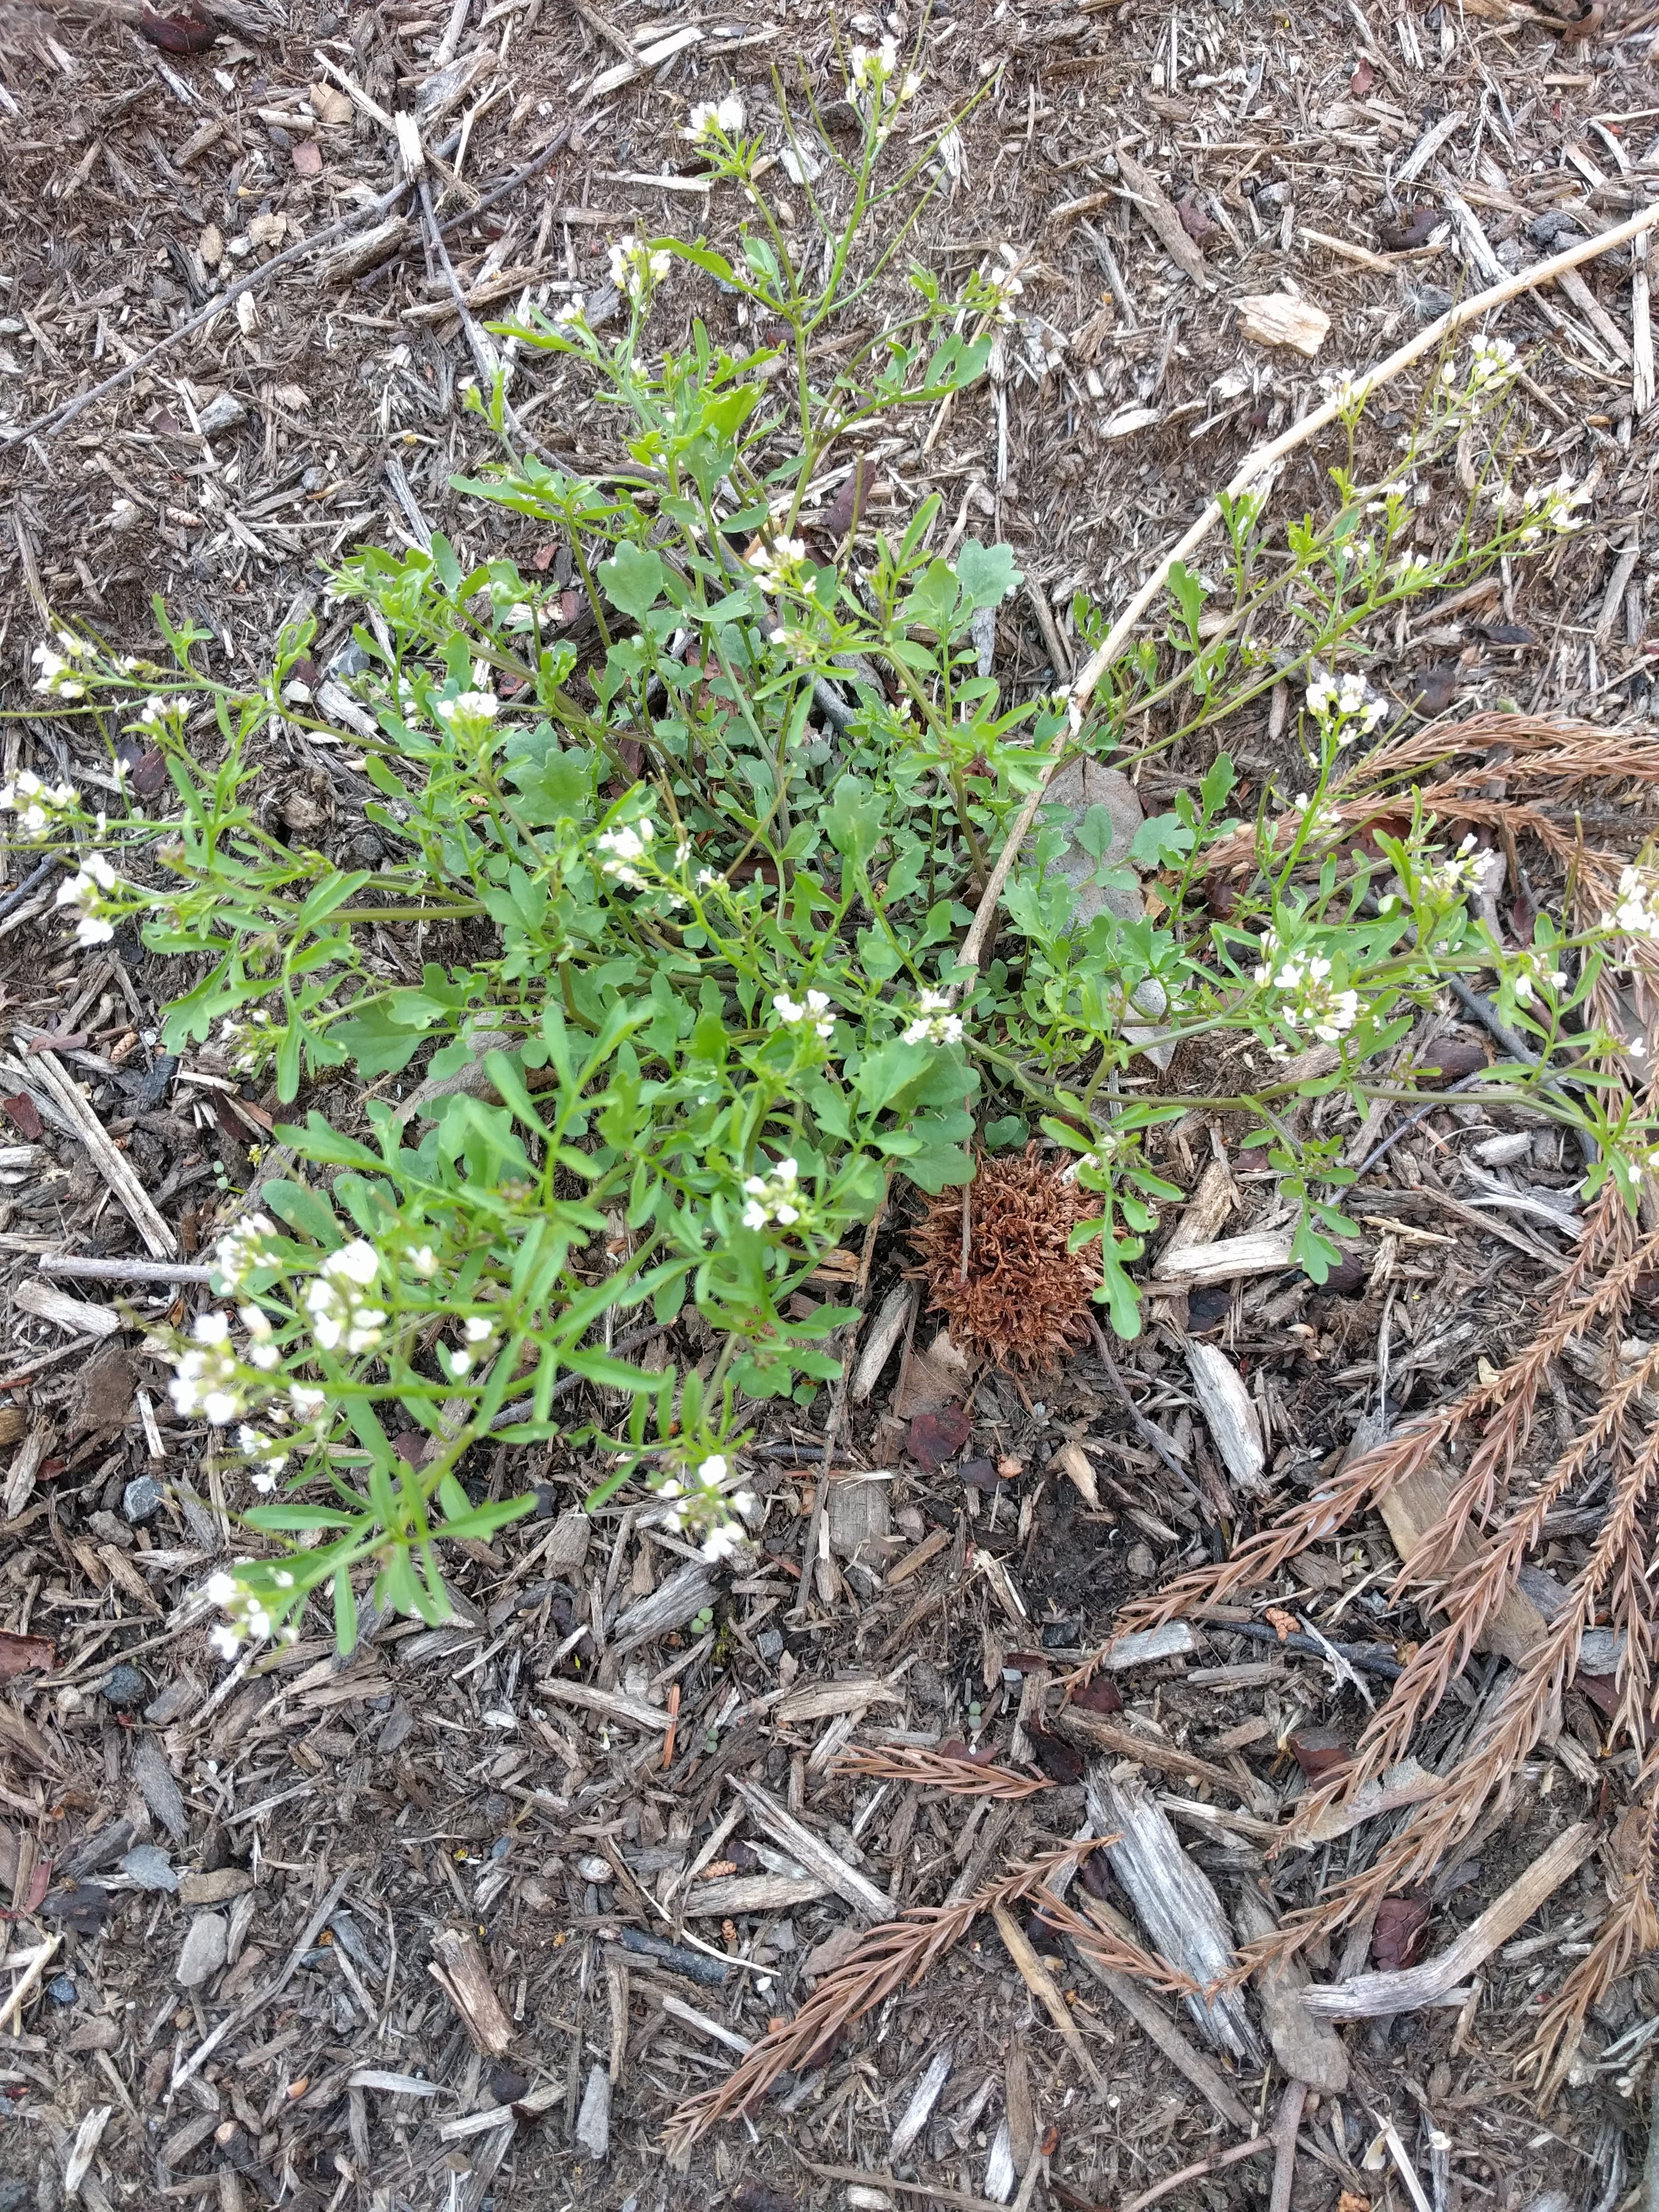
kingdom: Plantae
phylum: Tracheophyta
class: Magnoliopsida
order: Brassicales
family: Brassicaceae
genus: Cardamine
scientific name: Cardamine hirsuta
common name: Hairy Bittercress
